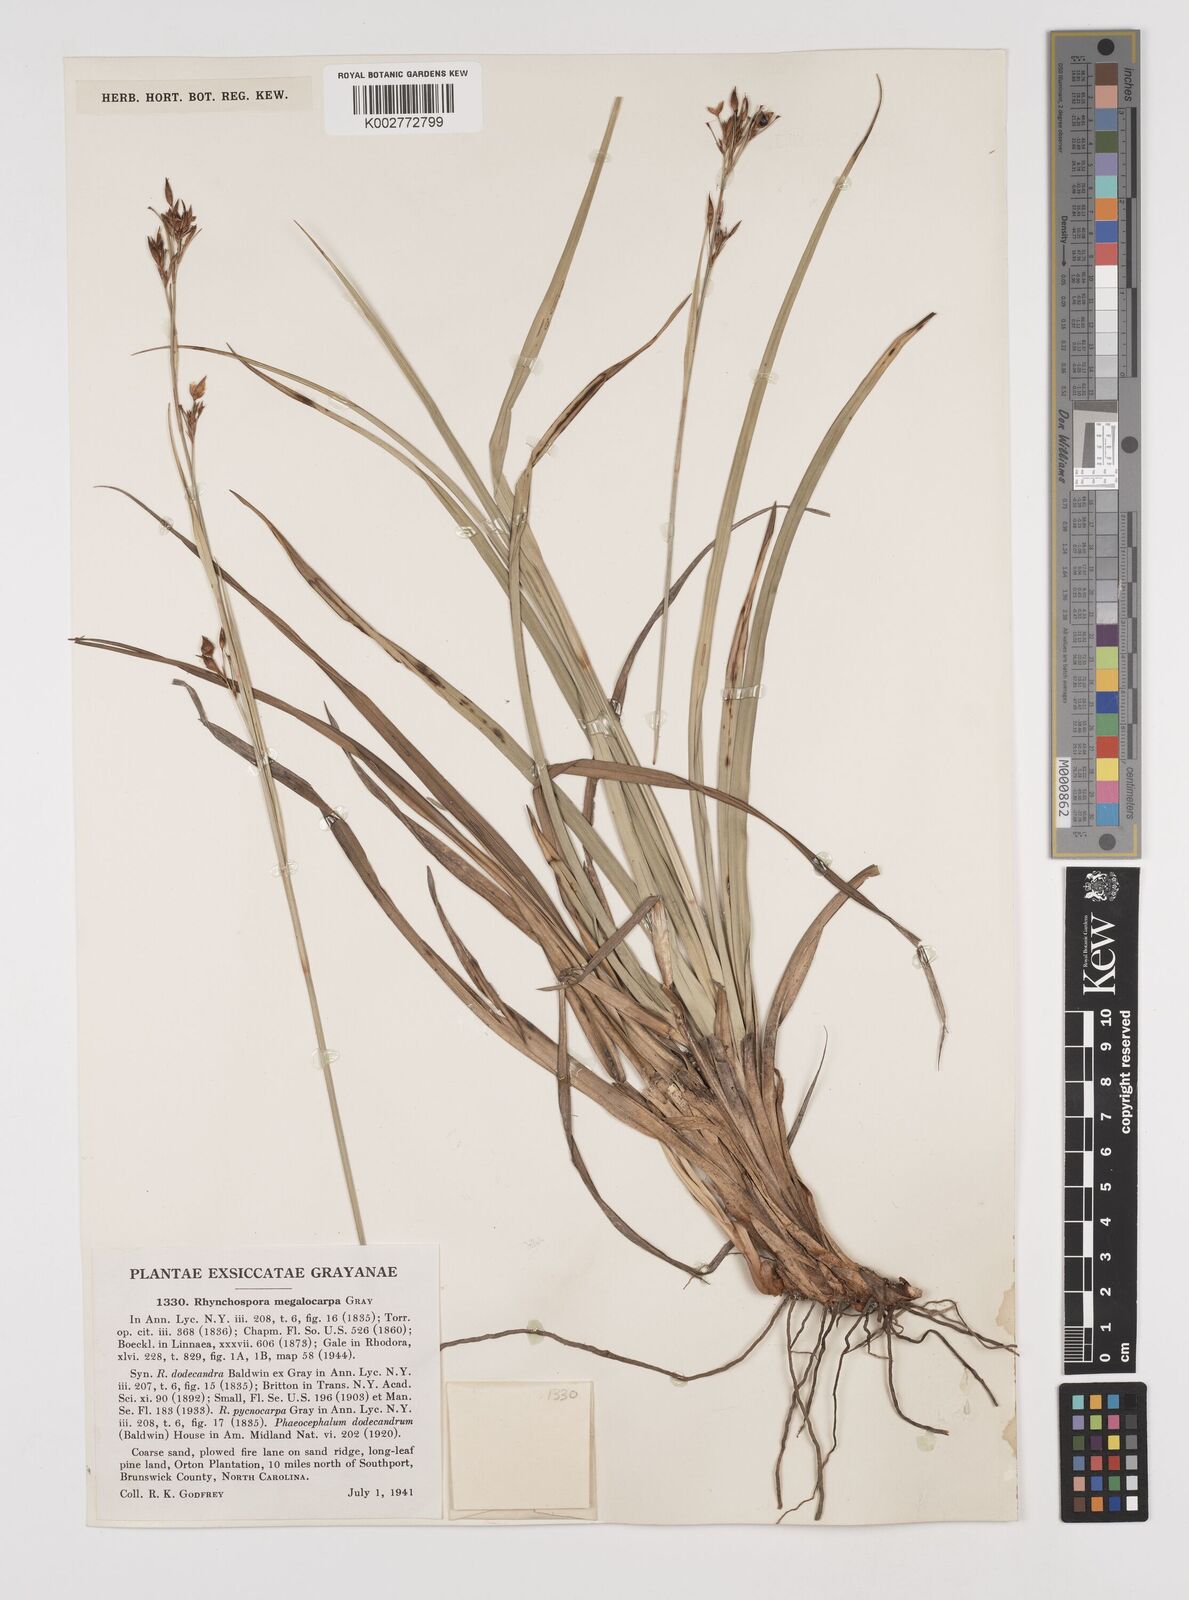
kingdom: Plantae
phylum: Tracheophyta
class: Liliopsida
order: Poales
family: Cyperaceae
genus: Rhynchospora
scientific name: Rhynchospora megalocarpa
